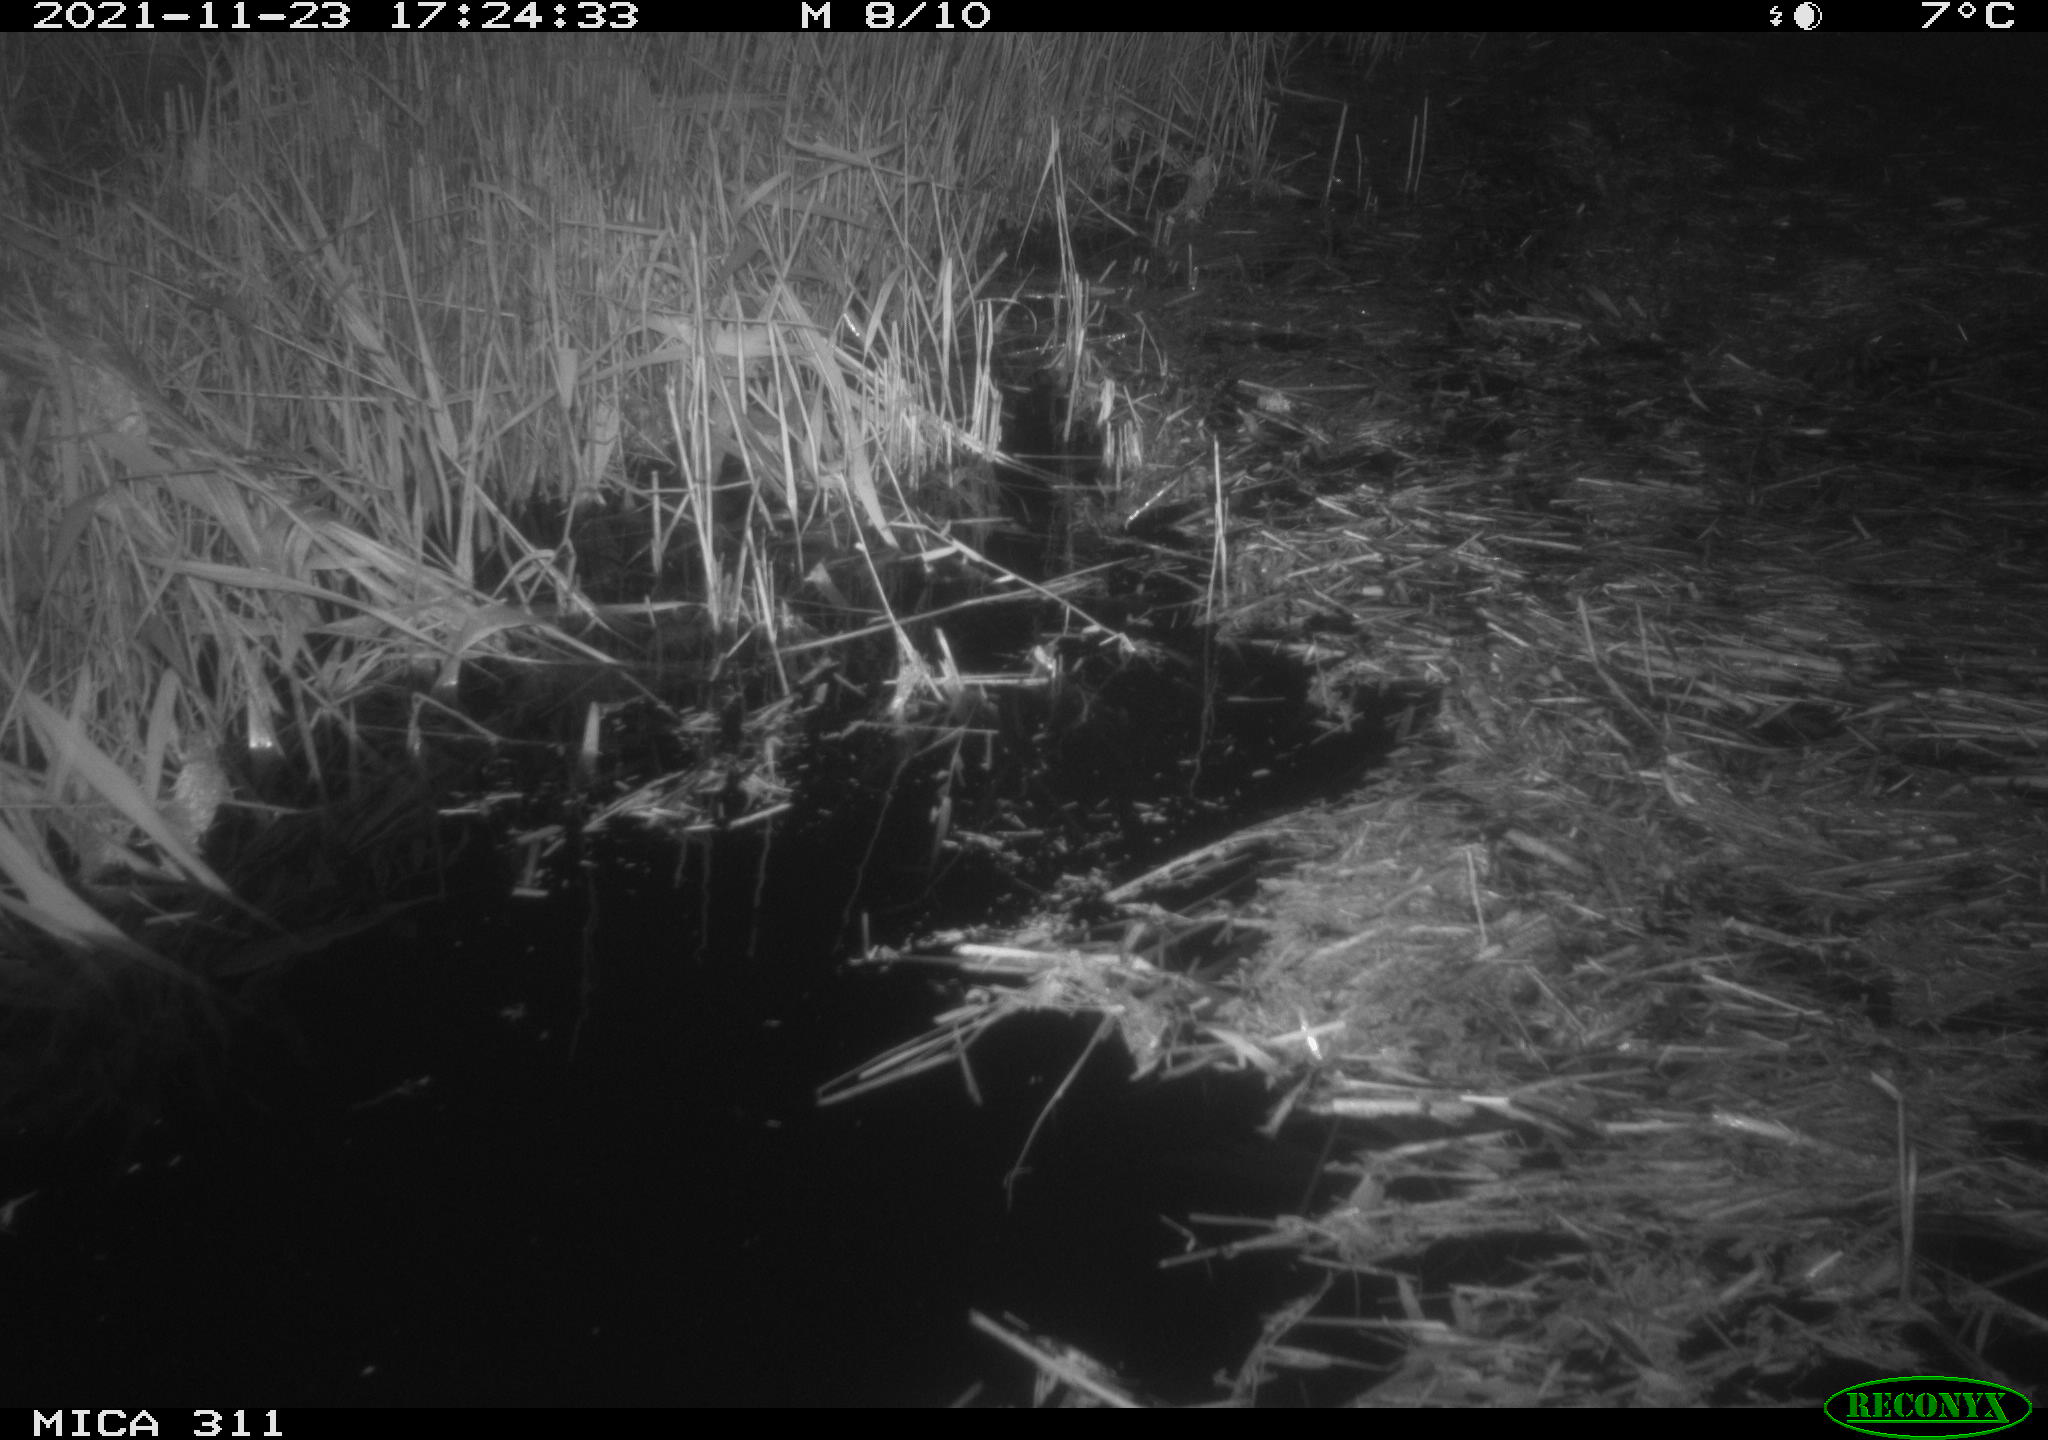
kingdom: Animalia
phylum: Chordata
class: Aves
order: Gruiformes
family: Rallidae
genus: Gallinula
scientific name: Gallinula chloropus
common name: Common moorhen
